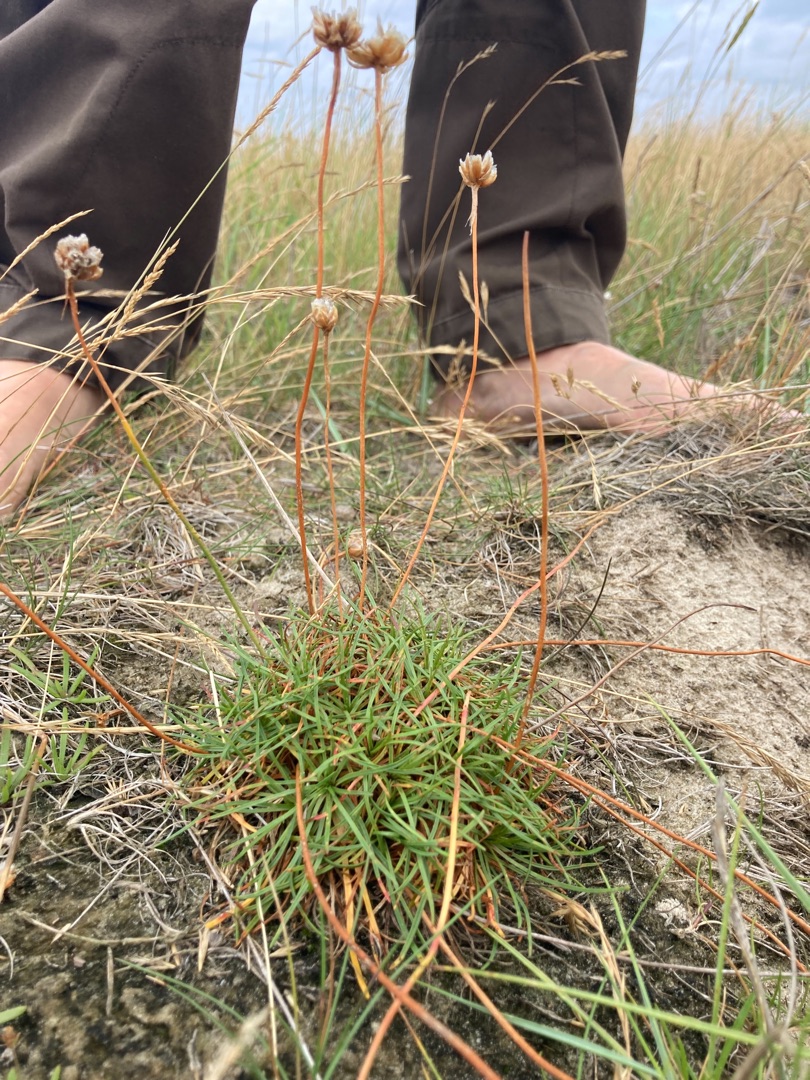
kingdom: Plantae
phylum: Tracheophyta
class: Magnoliopsida
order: Caryophyllales
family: Plumbaginaceae
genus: Armeria
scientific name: Armeria maritima
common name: Engelskgræs
